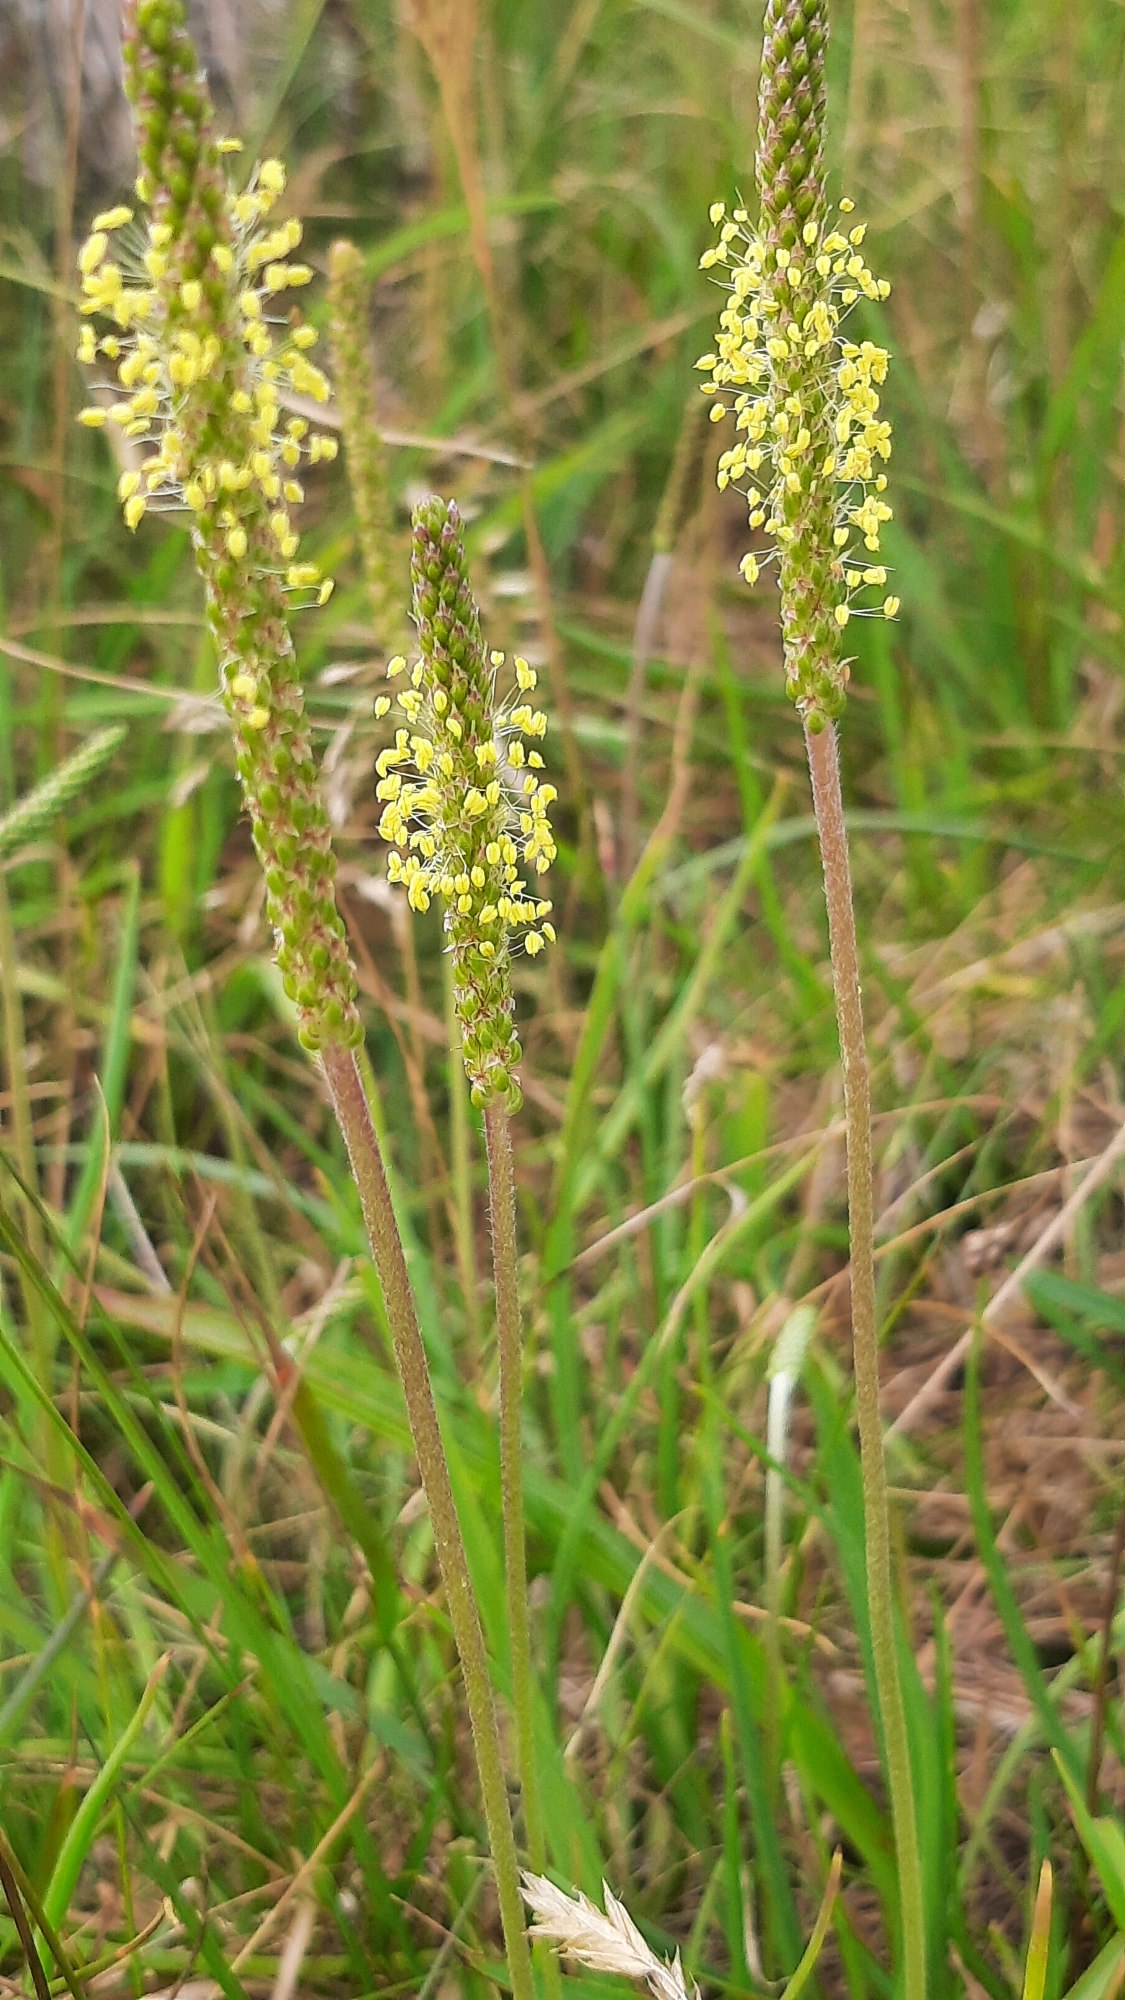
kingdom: Plantae
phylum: Tracheophyta
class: Magnoliopsida
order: Lamiales
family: Plantaginaceae
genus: Plantago
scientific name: Plantago maritima
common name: Strand-vejbred
